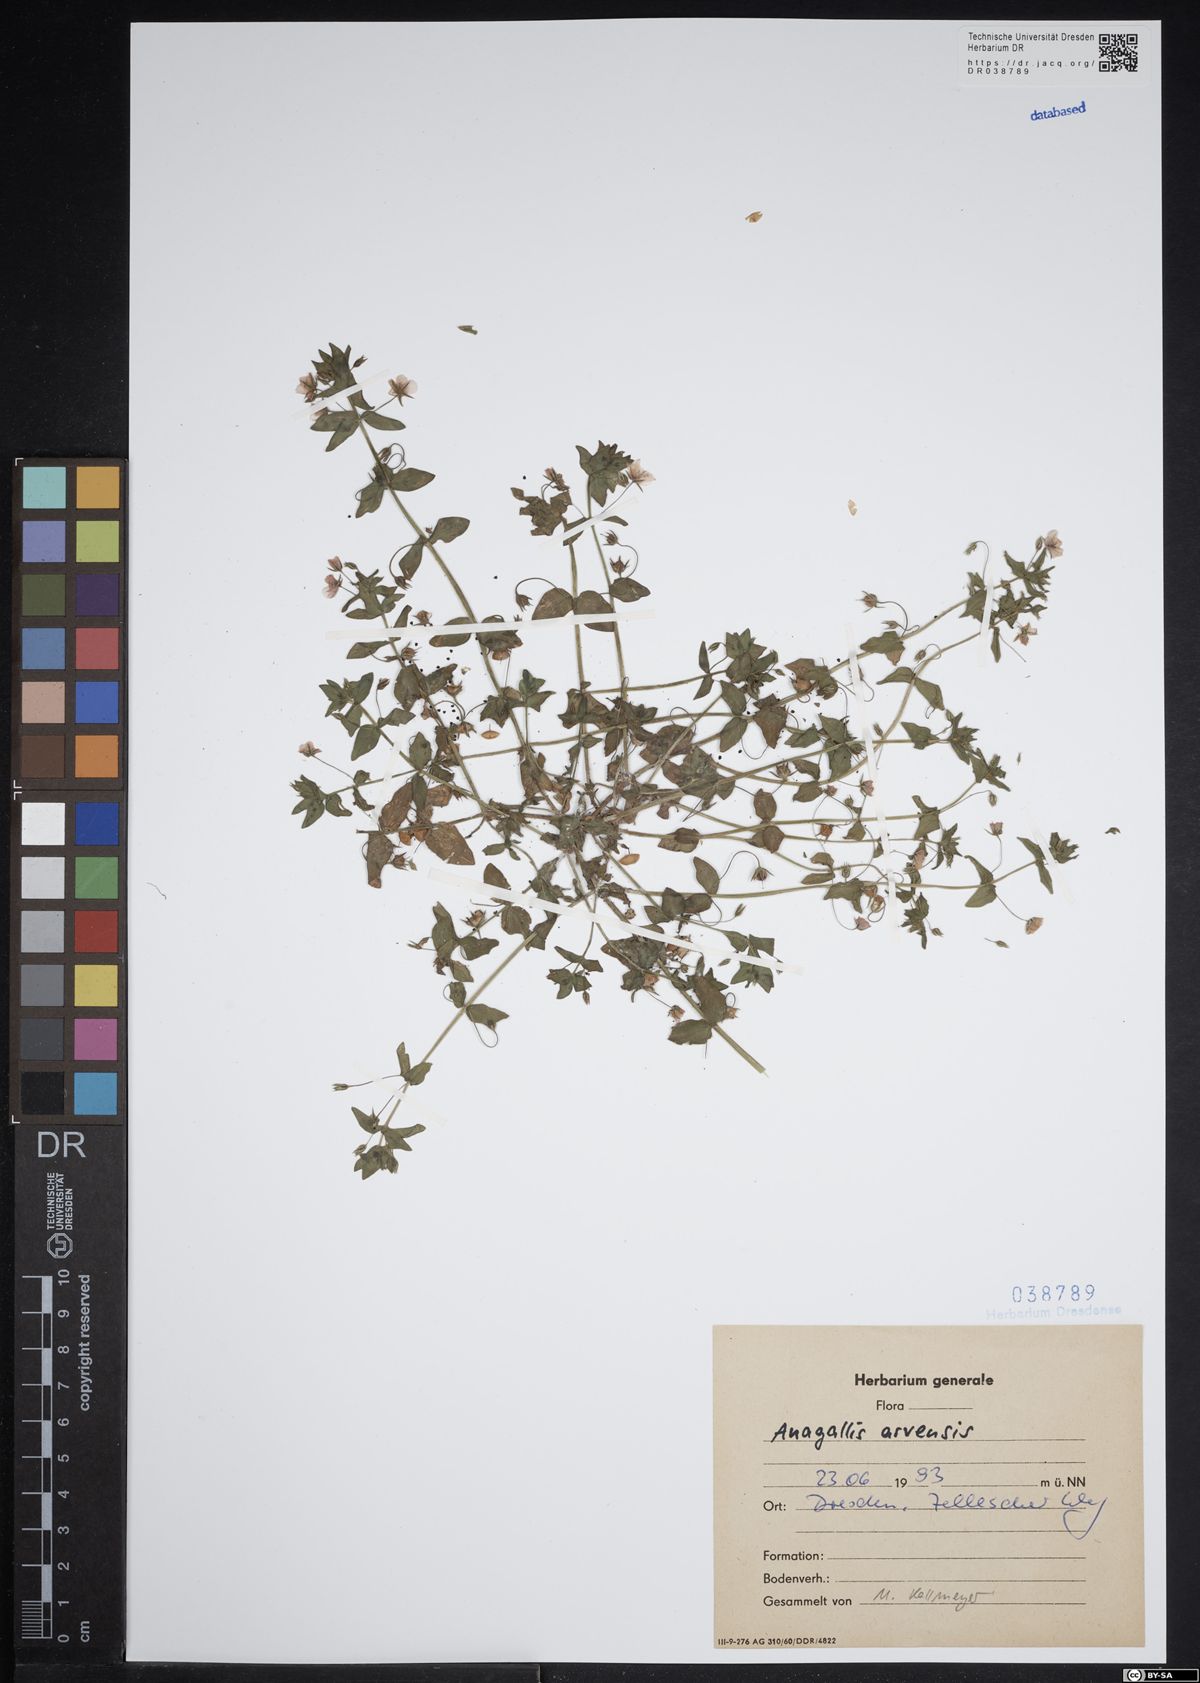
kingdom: Plantae
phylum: Tracheophyta
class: Magnoliopsida
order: Ericales
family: Primulaceae
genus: Lysimachia
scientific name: Lysimachia arvensis
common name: Scarlet pimpernel
